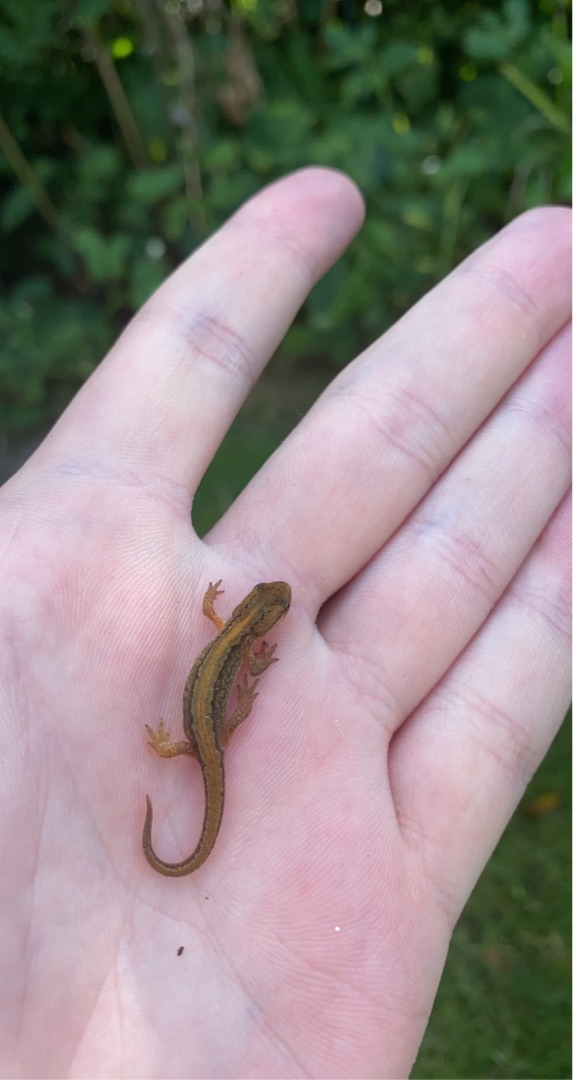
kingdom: Animalia
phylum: Chordata
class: Amphibia
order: Caudata
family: Salamandridae
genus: Lissotriton
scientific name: Lissotriton vulgaris
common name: Lille vandsalamander
